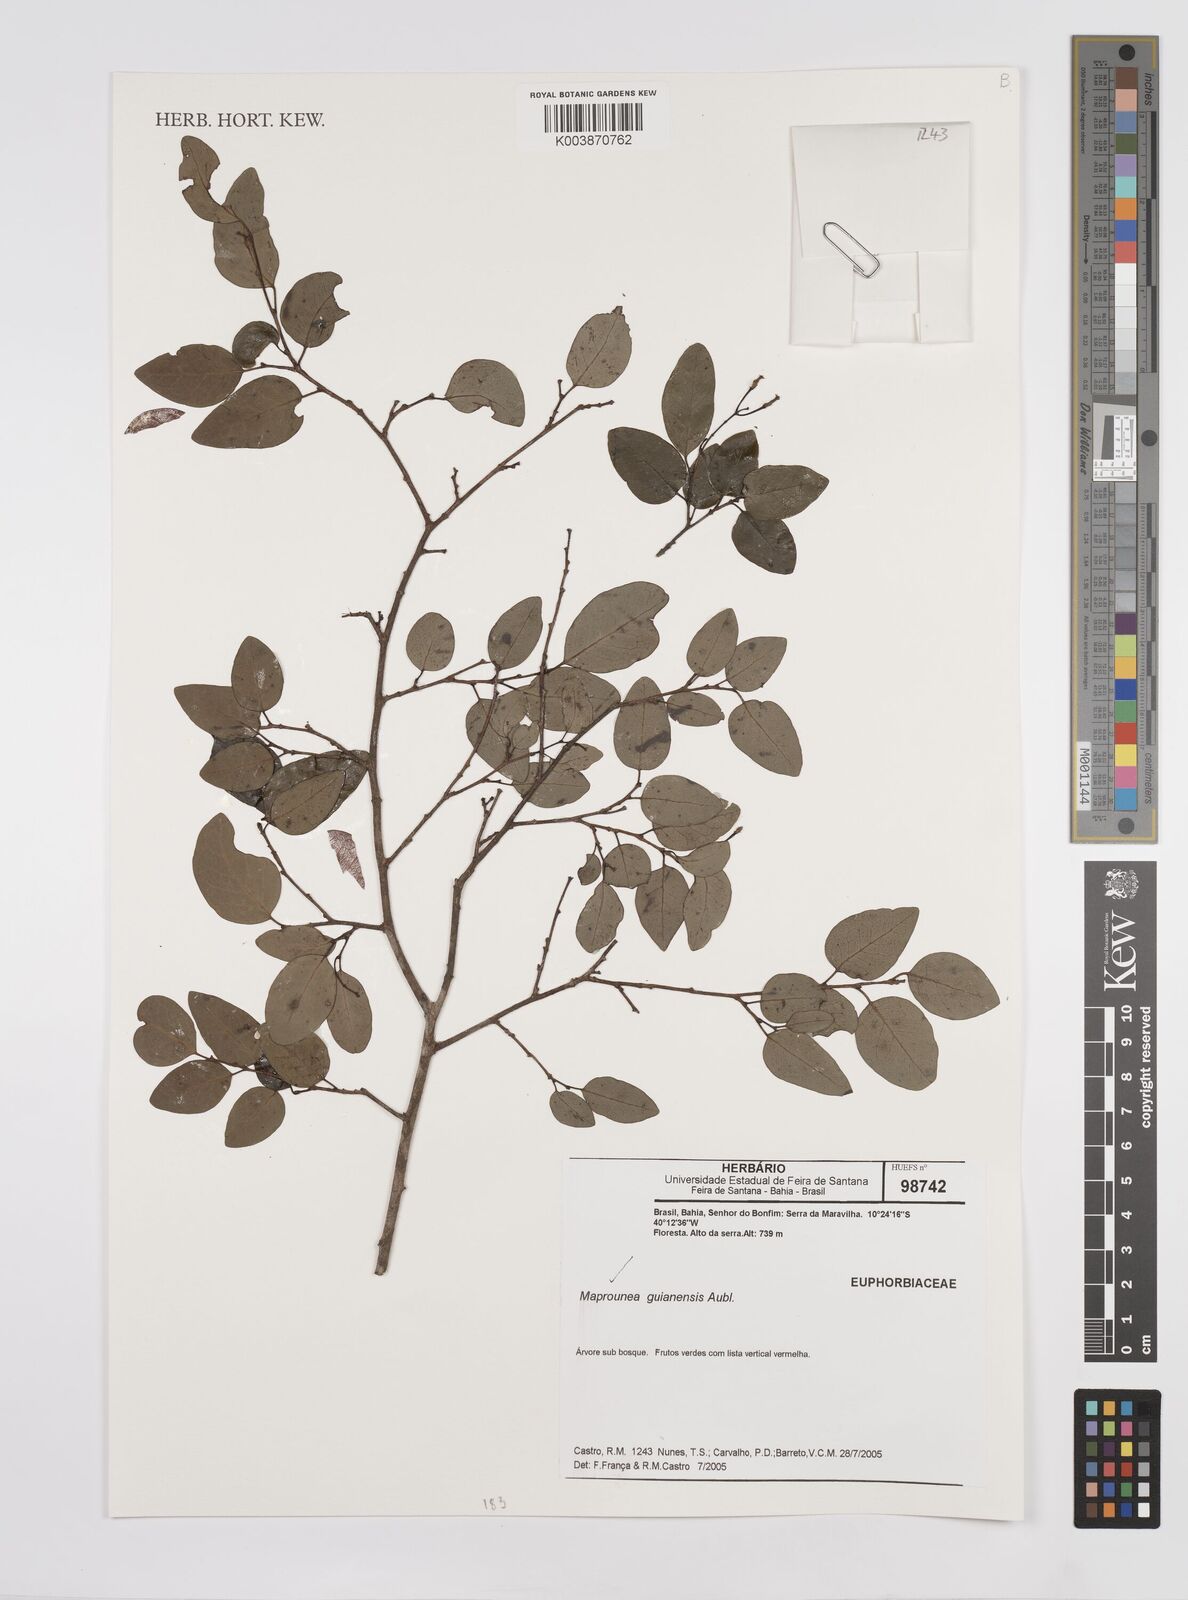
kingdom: Plantae
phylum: Tracheophyta
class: Magnoliopsida
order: Malpighiales
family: Euphorbiaceae
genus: Maprounea
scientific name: Maprounea guianensis
